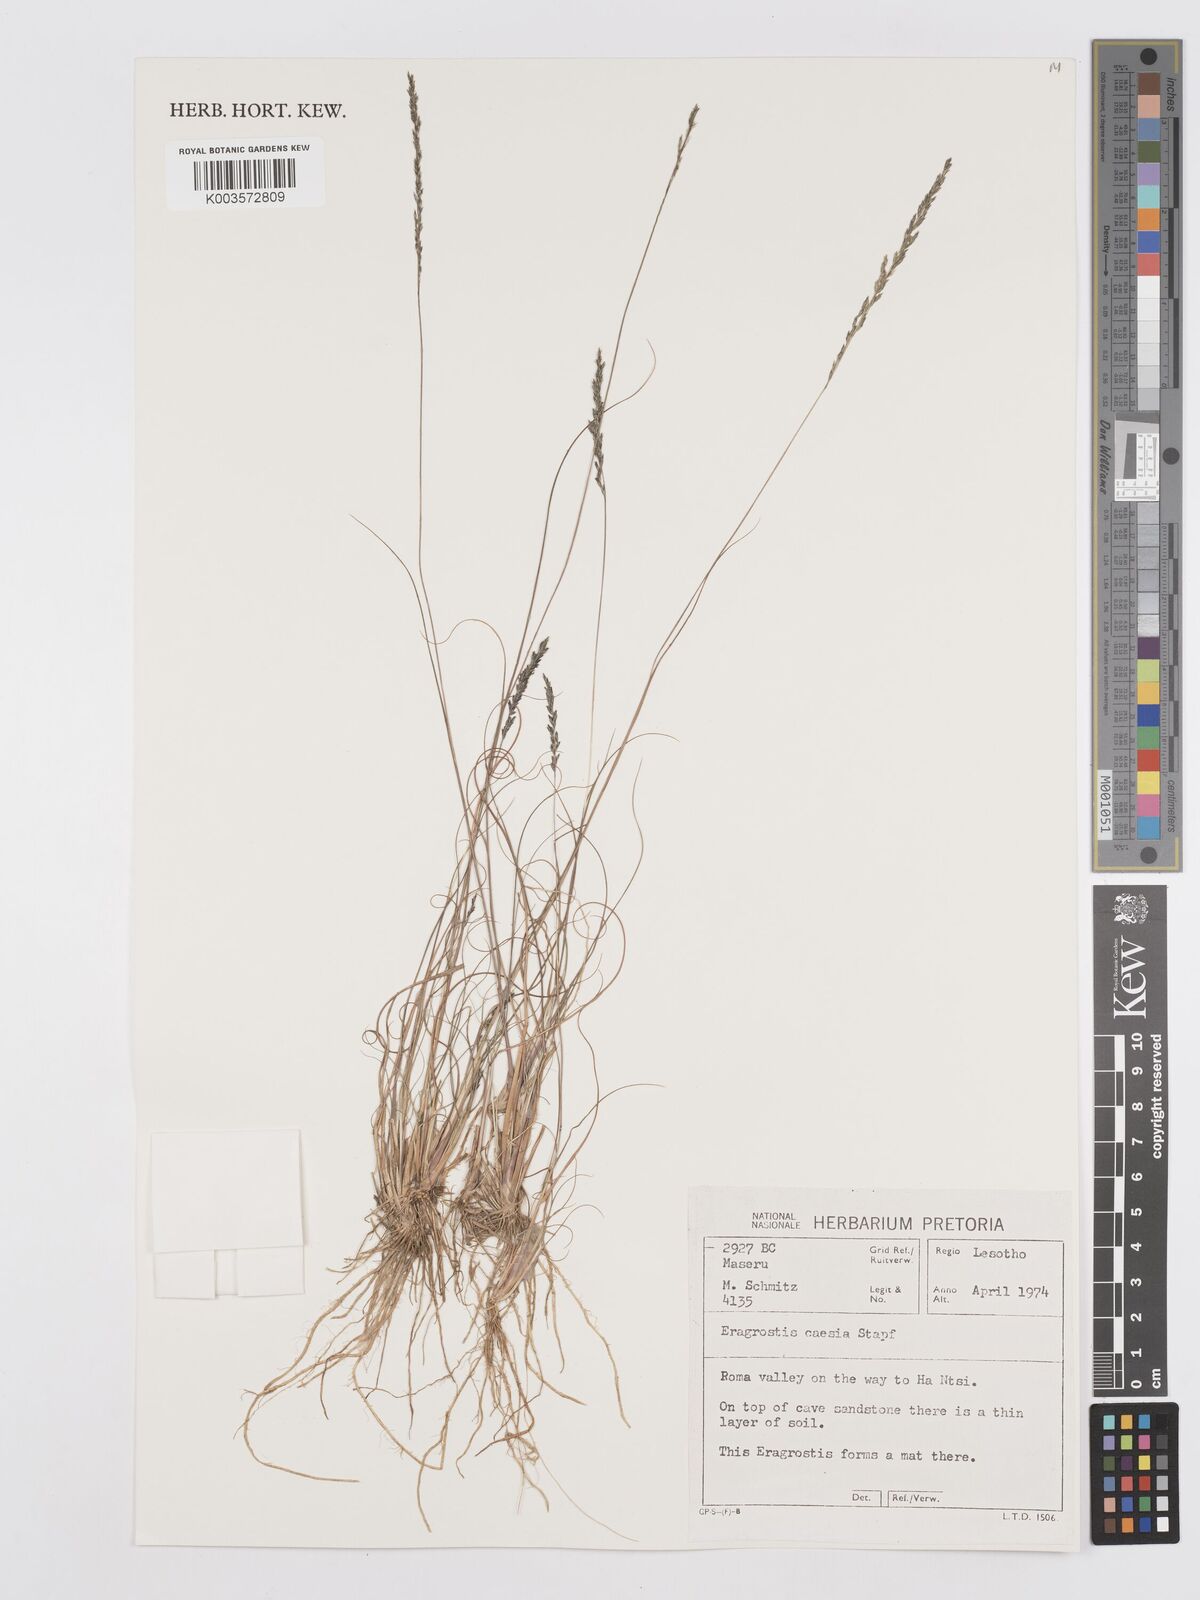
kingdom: Plantae
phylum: Tracheophyta
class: Liliopsida
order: Poales
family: Poaceae
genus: Eragrostis
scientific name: Eragrostis caesia
